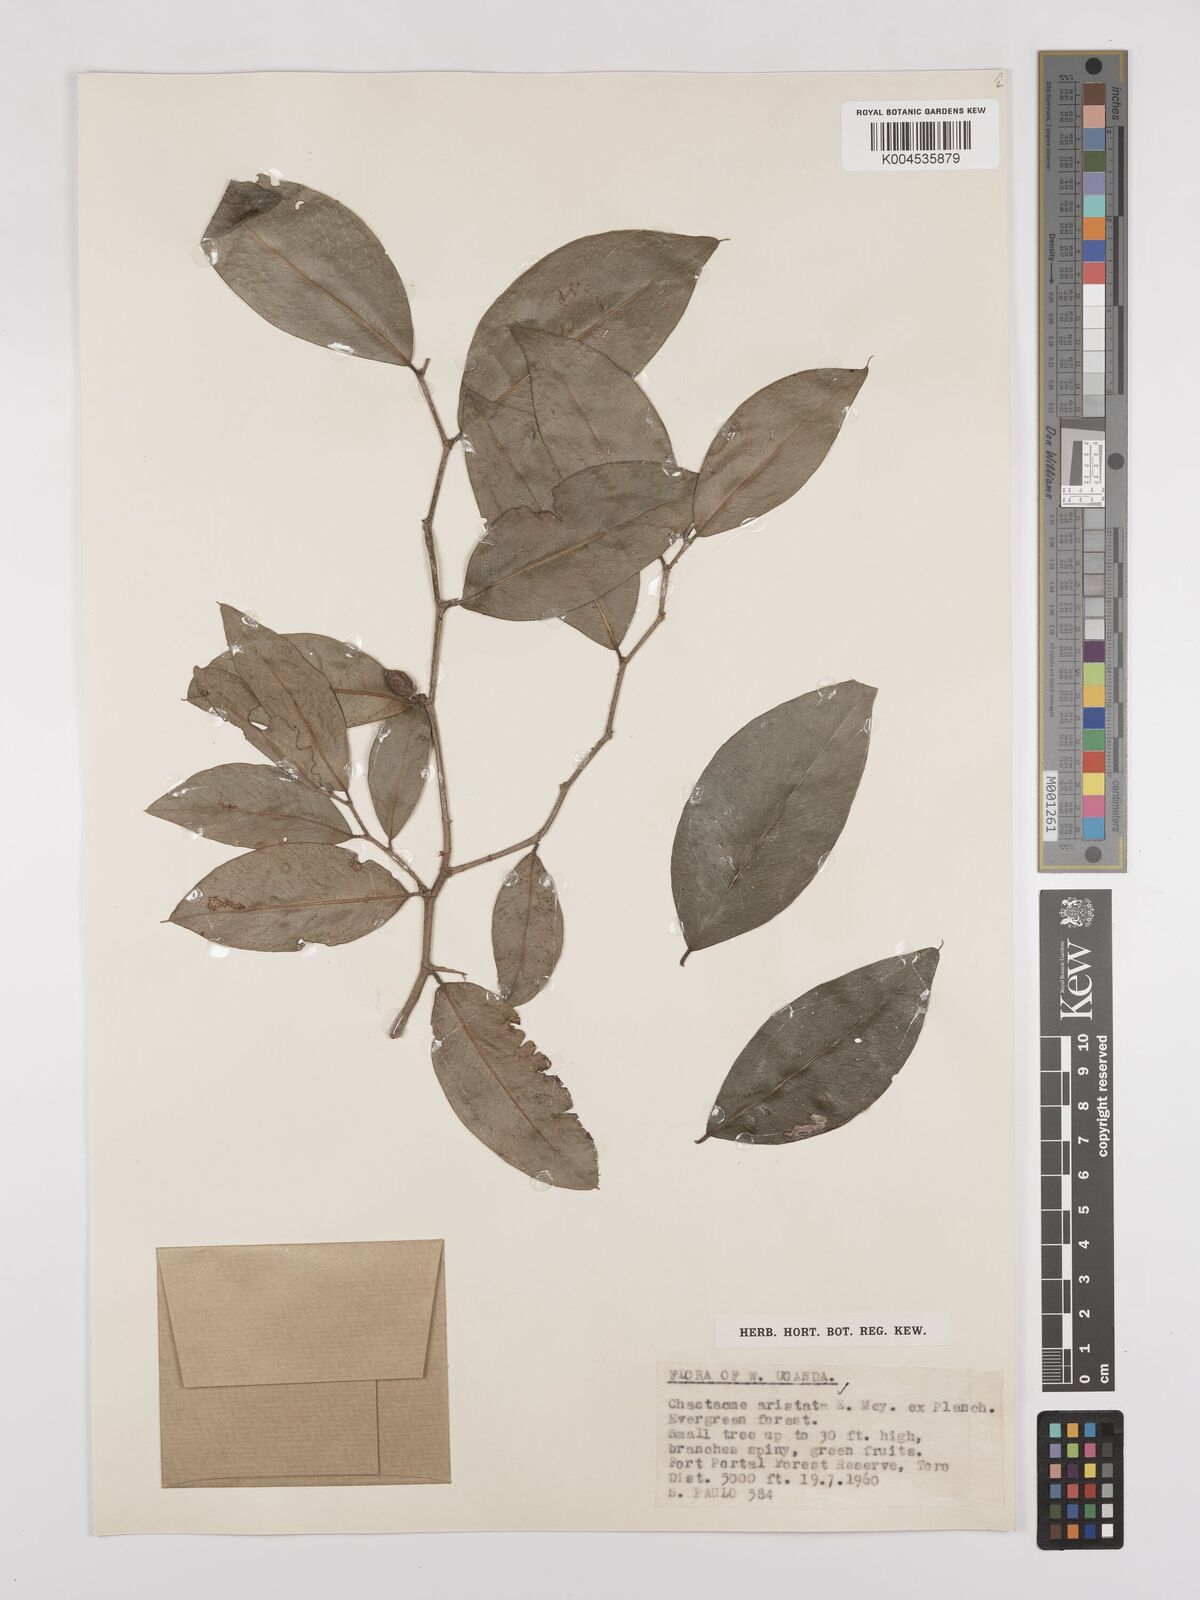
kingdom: Plantae
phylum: Tracheophyta
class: Magnoliopsida
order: Rosales
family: Cannabaceae
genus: Chaetachme
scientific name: Chaetachme aristata
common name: Thorny elm
